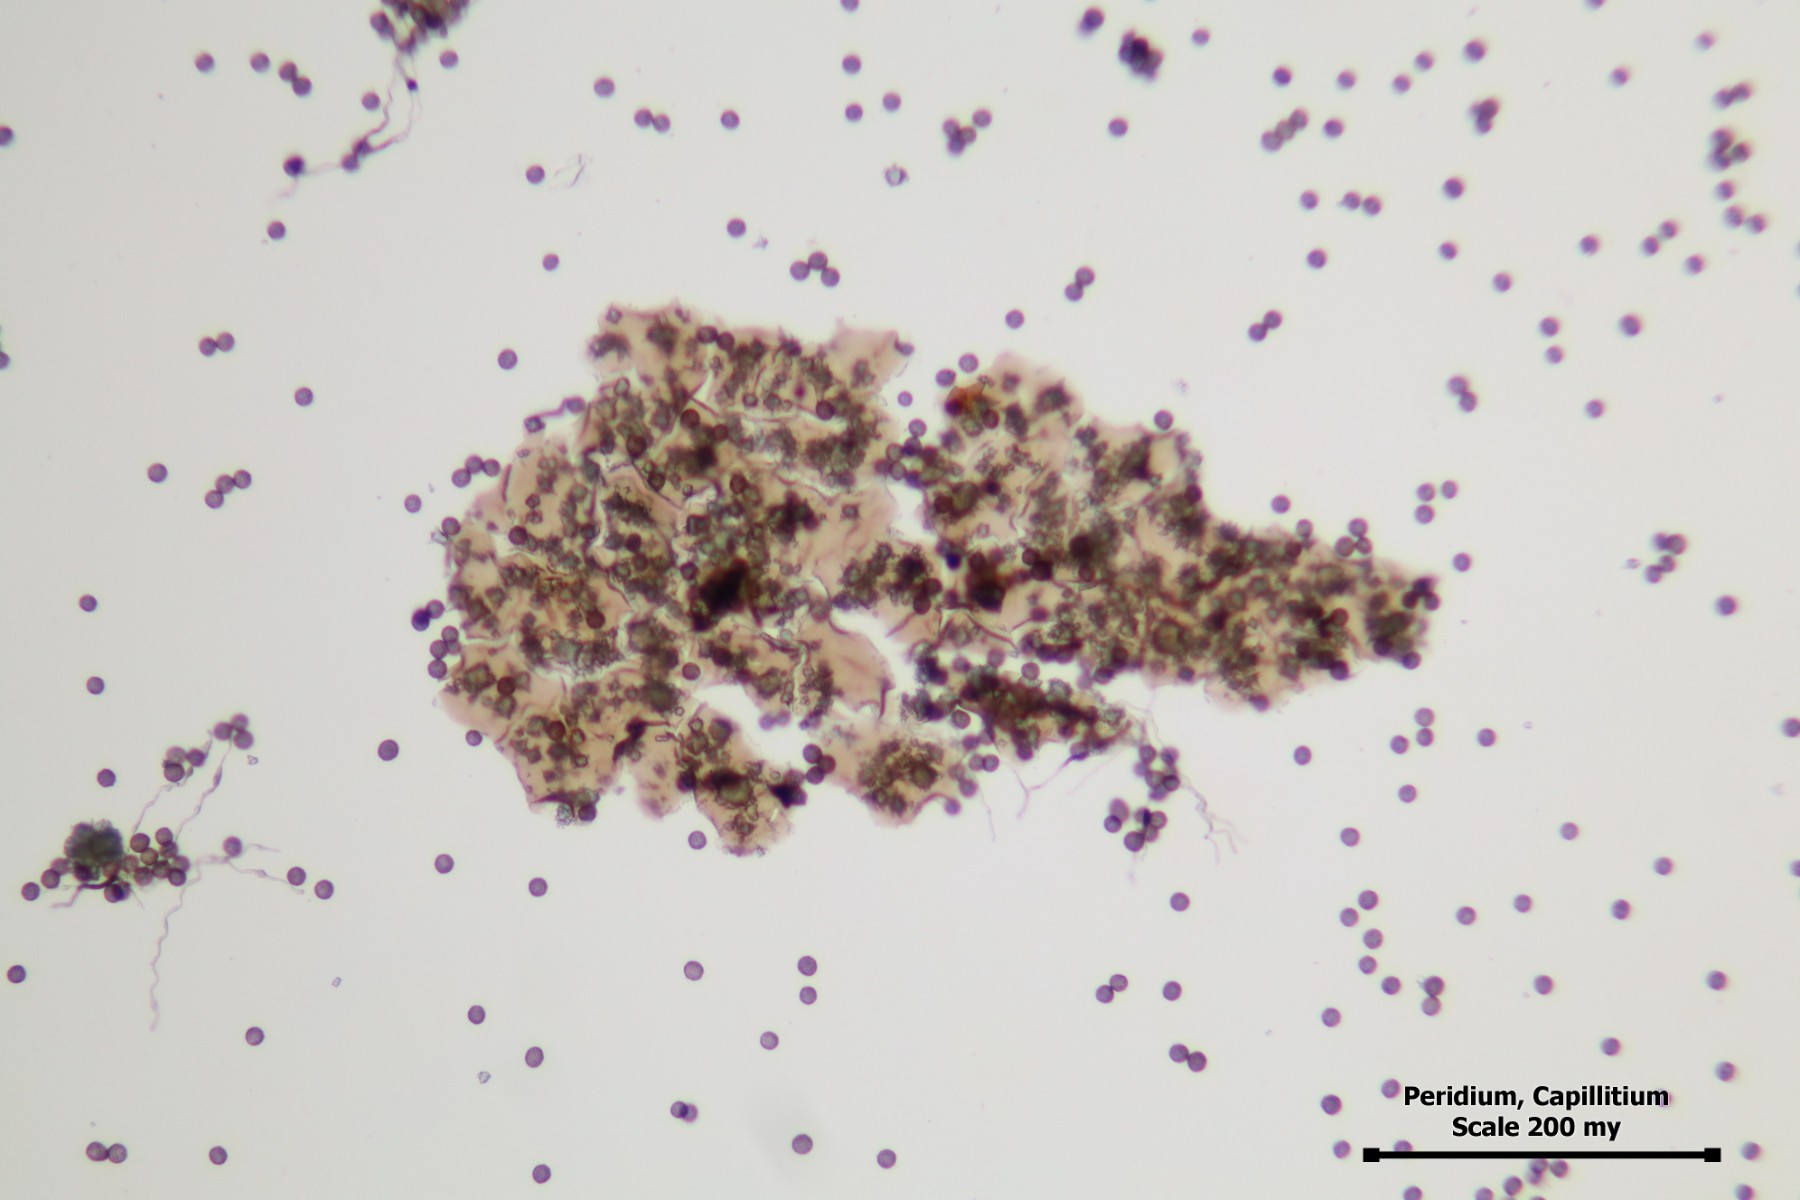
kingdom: Protozoa
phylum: Mycetozoa
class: Myxomycetes
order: Physarales
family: Didymiaceae
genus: Didymium
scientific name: Didymium melanospermum
